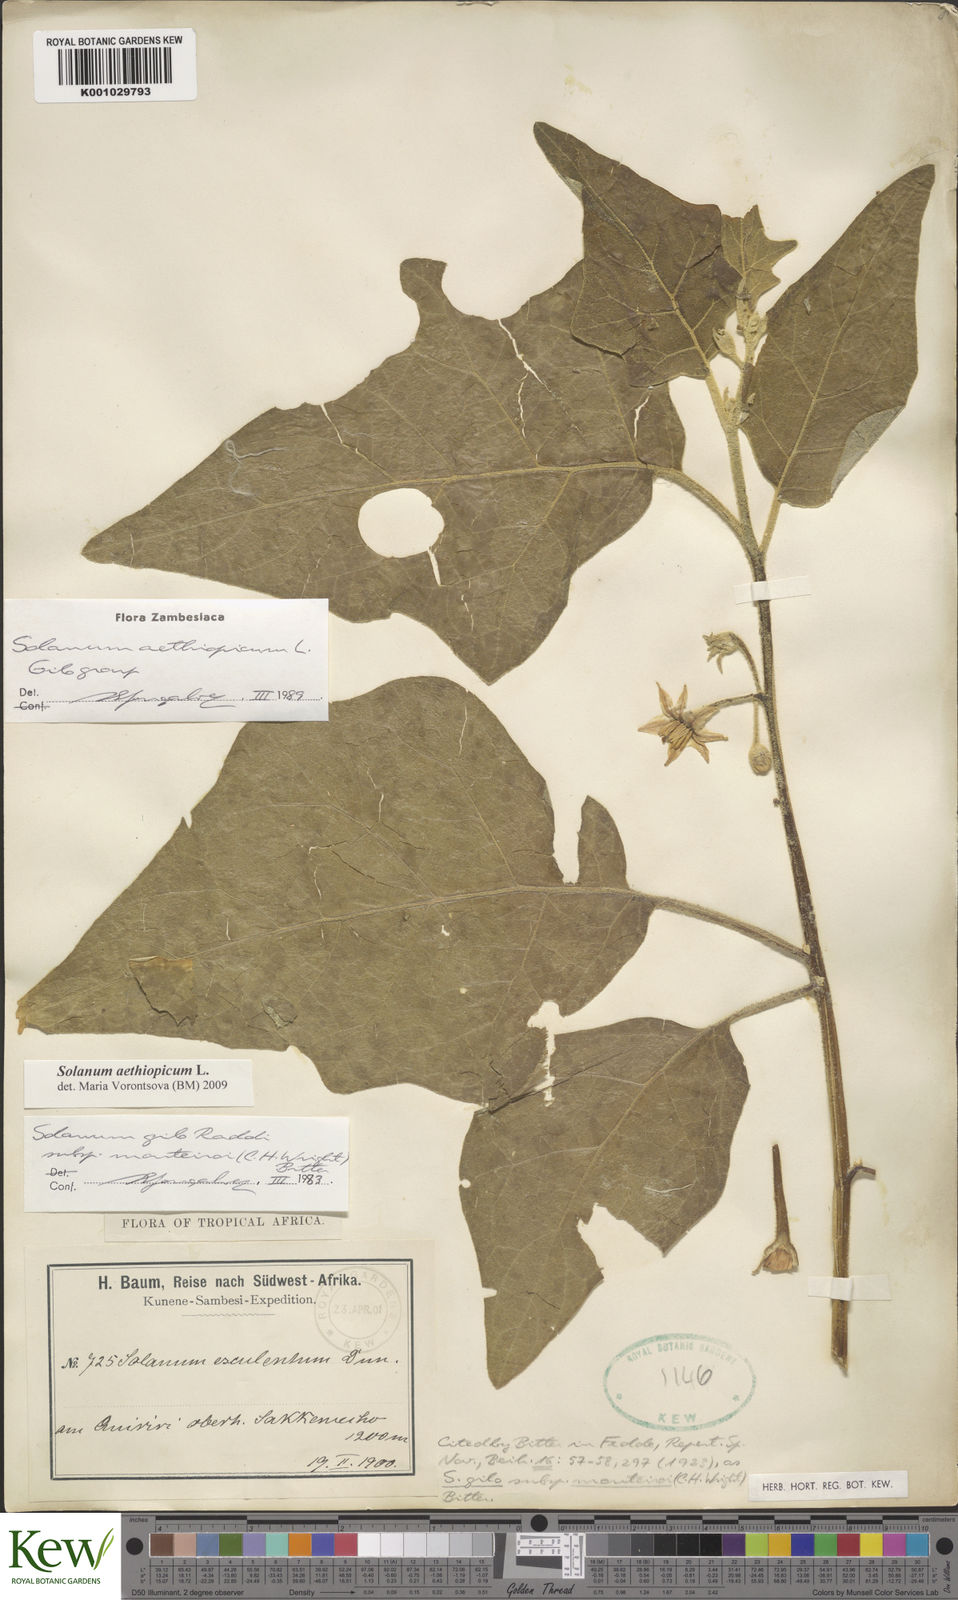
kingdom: Plantae
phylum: Tracheophyta
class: Magnoliopsida
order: Solanales
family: Solanaceae
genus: Solanum
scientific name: Solanum aethiopicum
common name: Gilo
